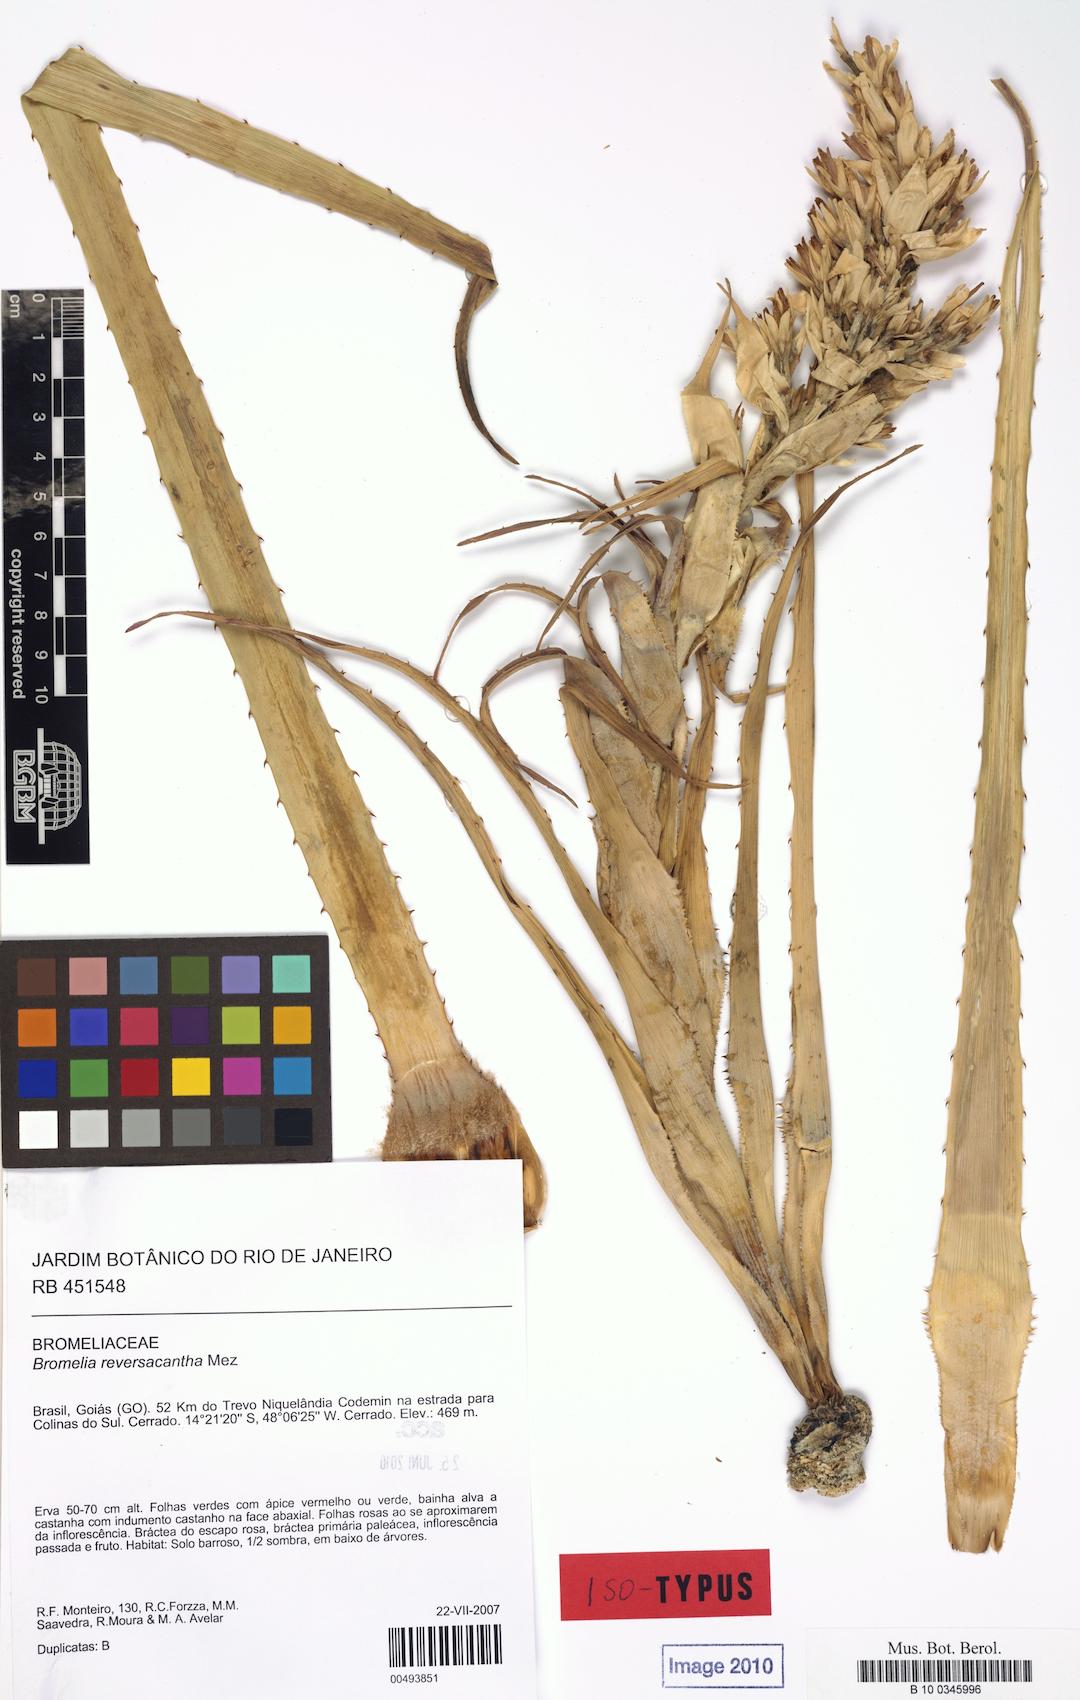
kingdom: Plantae
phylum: Tracheophyta
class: Liliopsida
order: Poales
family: Bromeliaceae
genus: Bromelia
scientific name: Bromelia reversacantha
